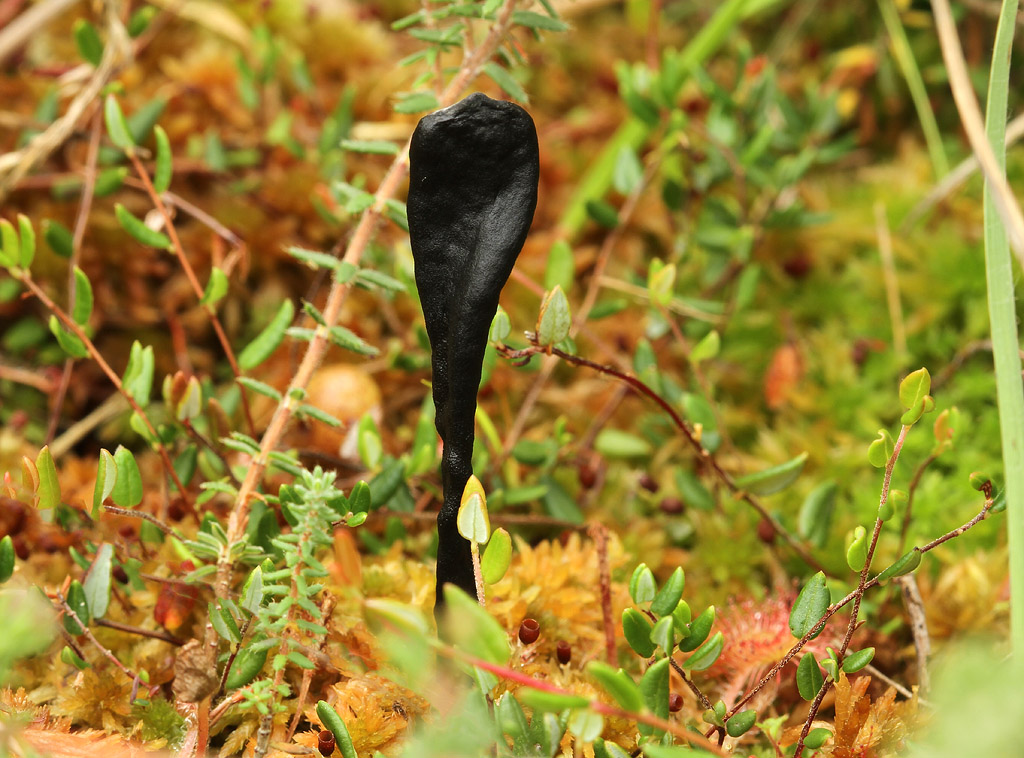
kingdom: Fungi
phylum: Ascomycota
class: Geoglossomycetes
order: Geoglossales
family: Geoglossaceae
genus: Geoglossum
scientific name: Geoglossum glabrum
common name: tørvemos-jordtunge
